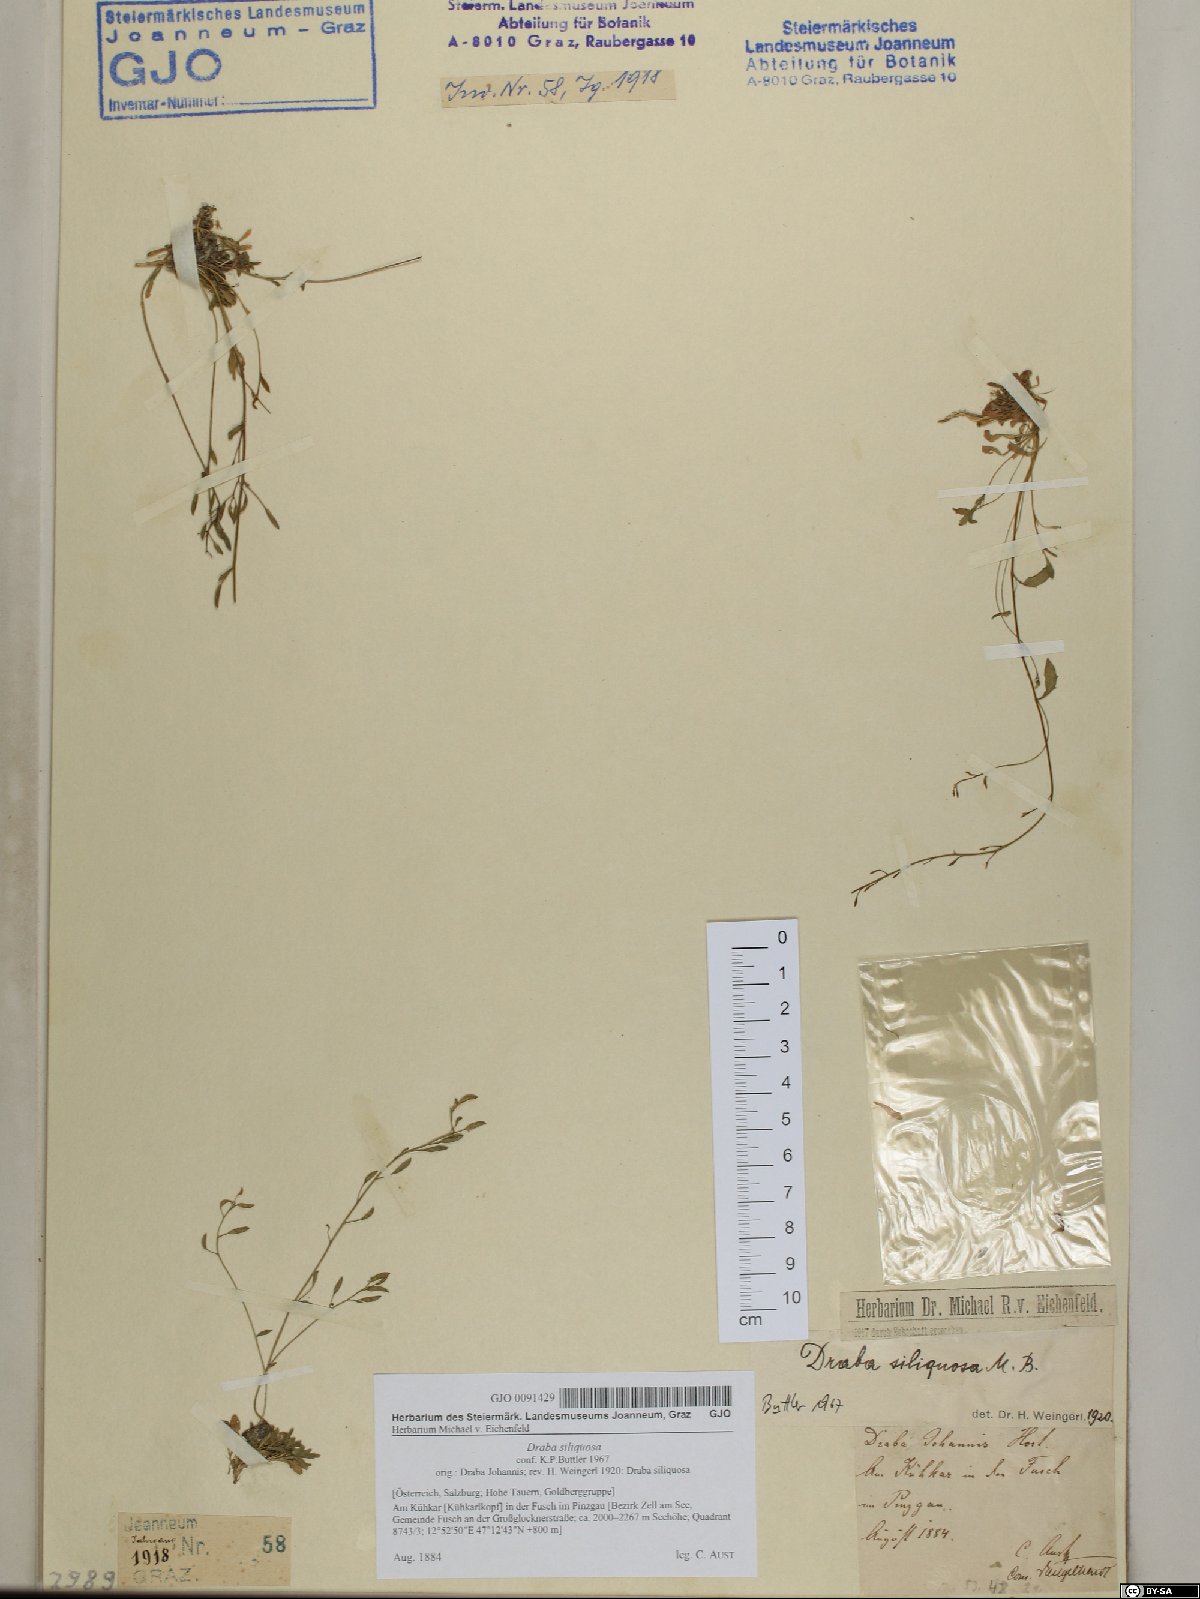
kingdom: Plantae
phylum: Tracheophyta
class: Magnoliopsida
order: Brassicales
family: Brassicaceae
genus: Draba
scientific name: Draba siliquosa
